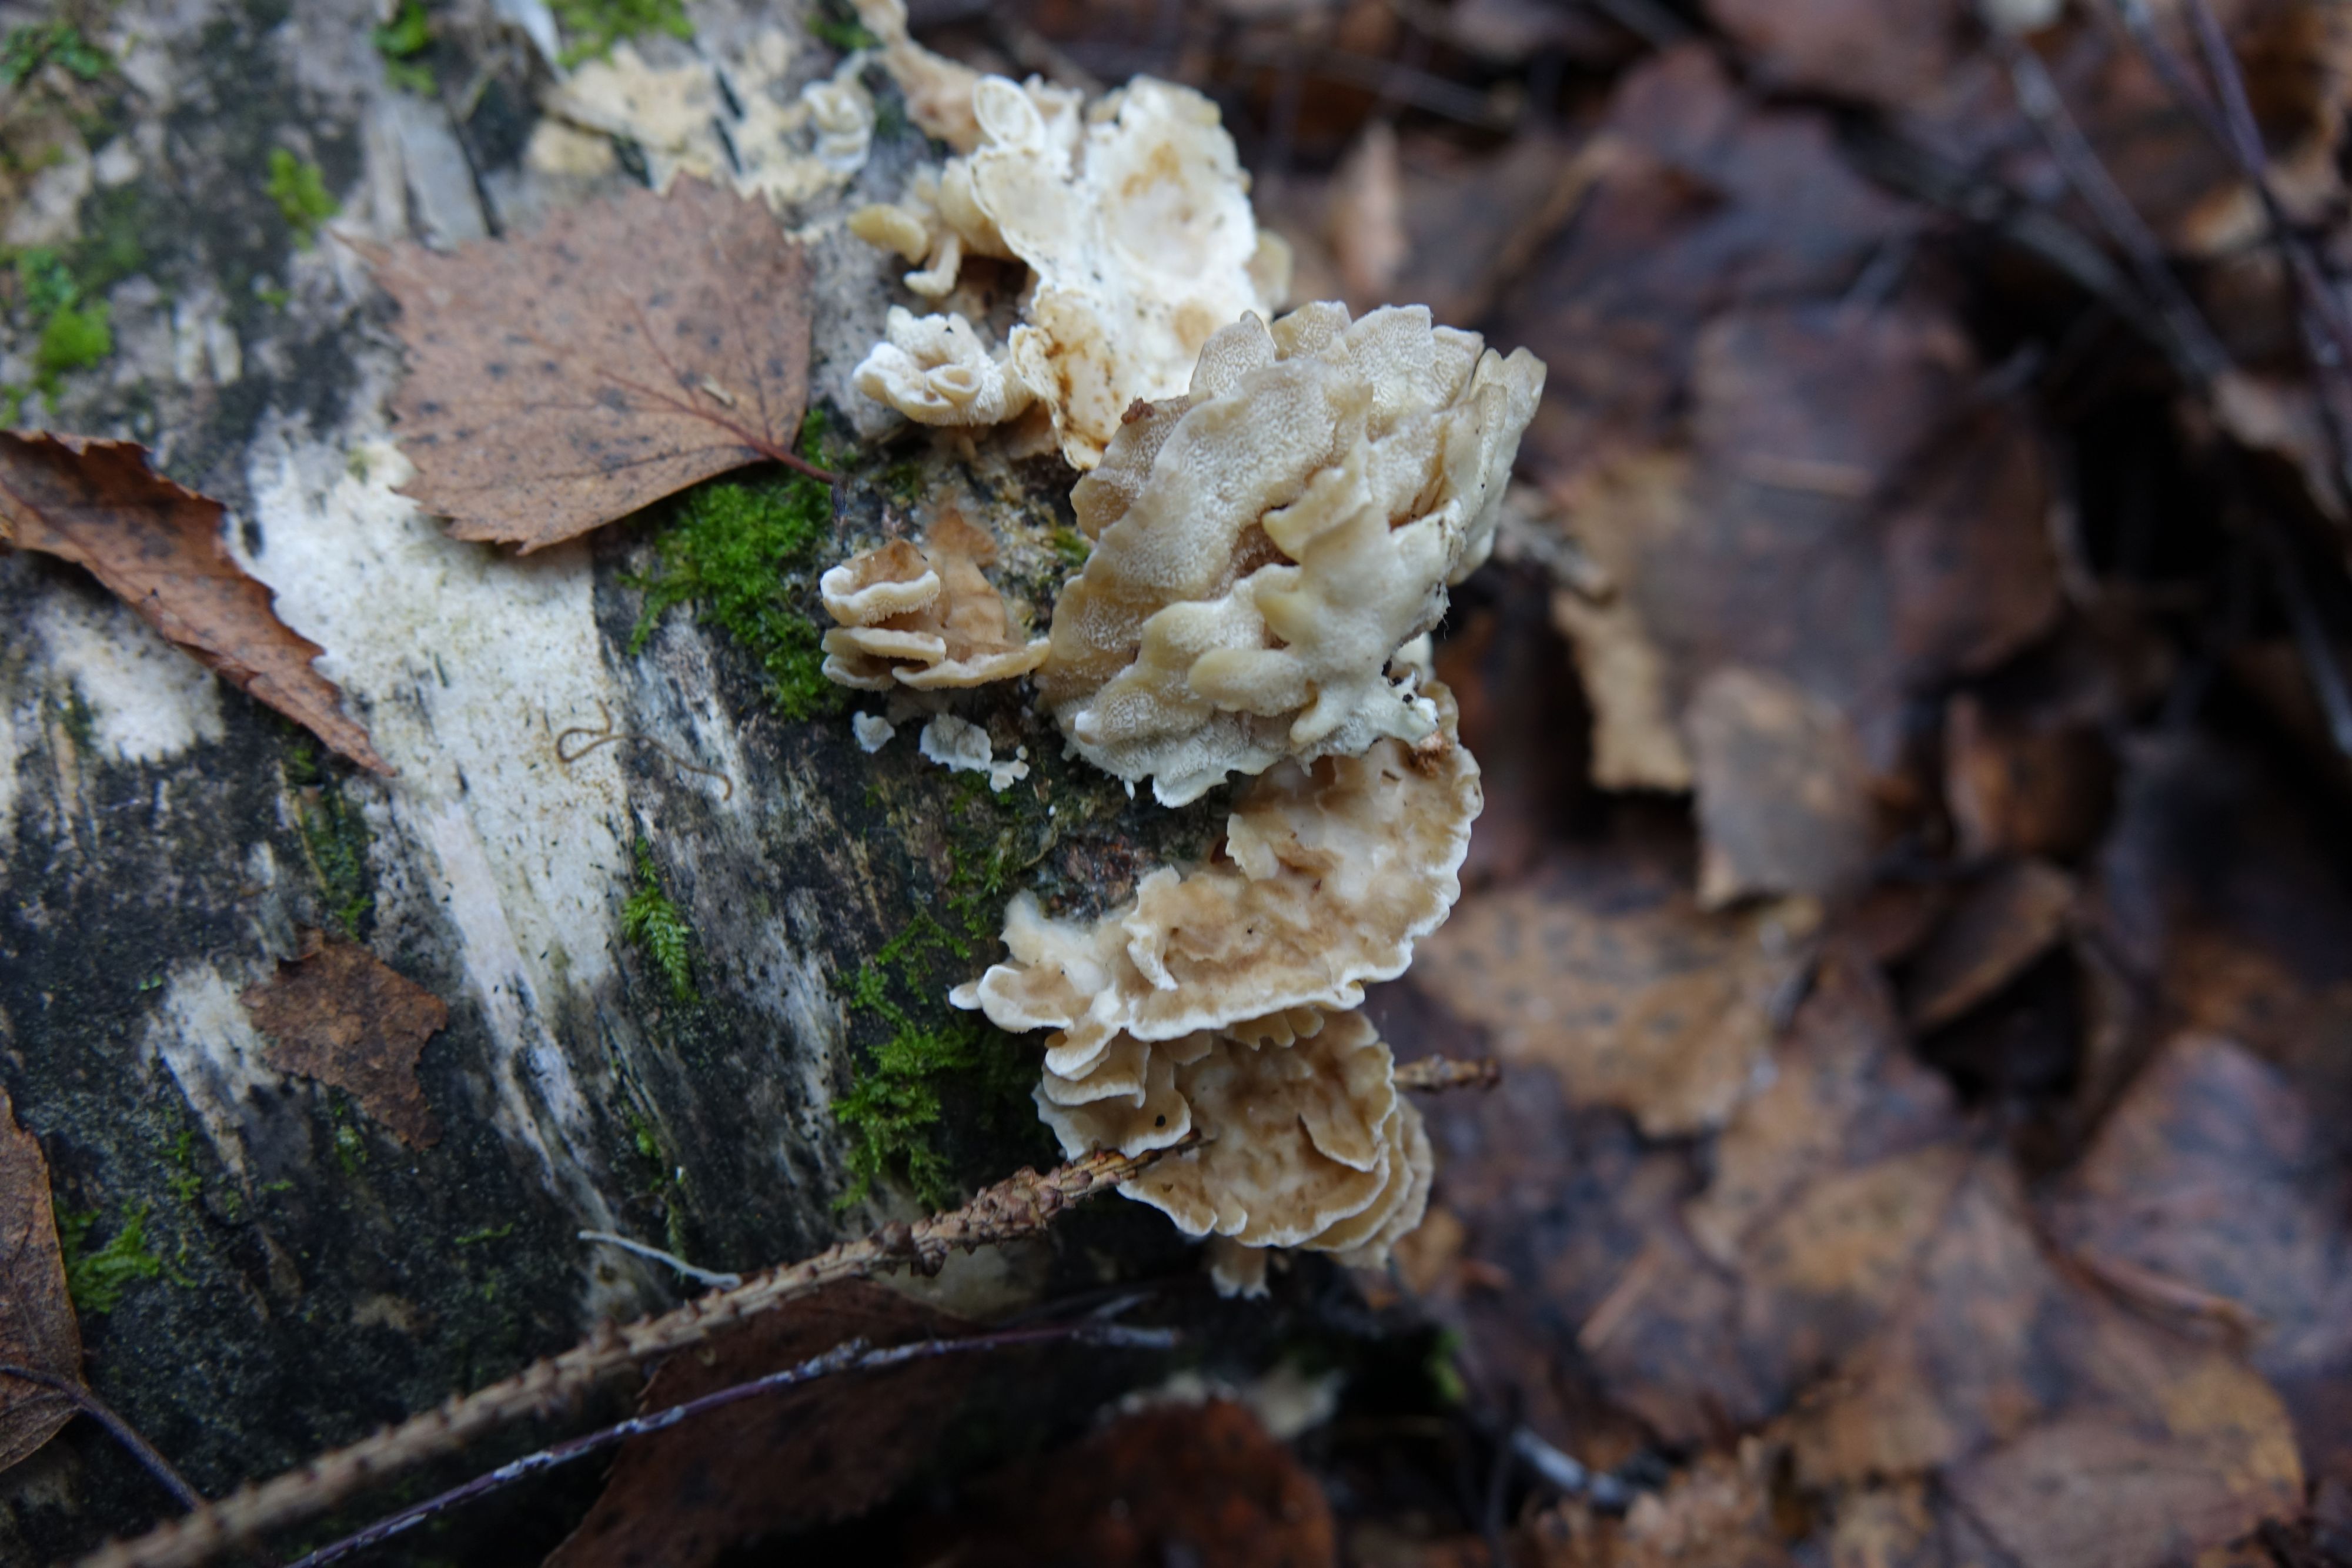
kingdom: Fungi
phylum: Basidiomycota
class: Agaricomycetes
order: Polyporales
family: Steccherinaceae
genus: Antrodiella
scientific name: Antrodiella pallescens
